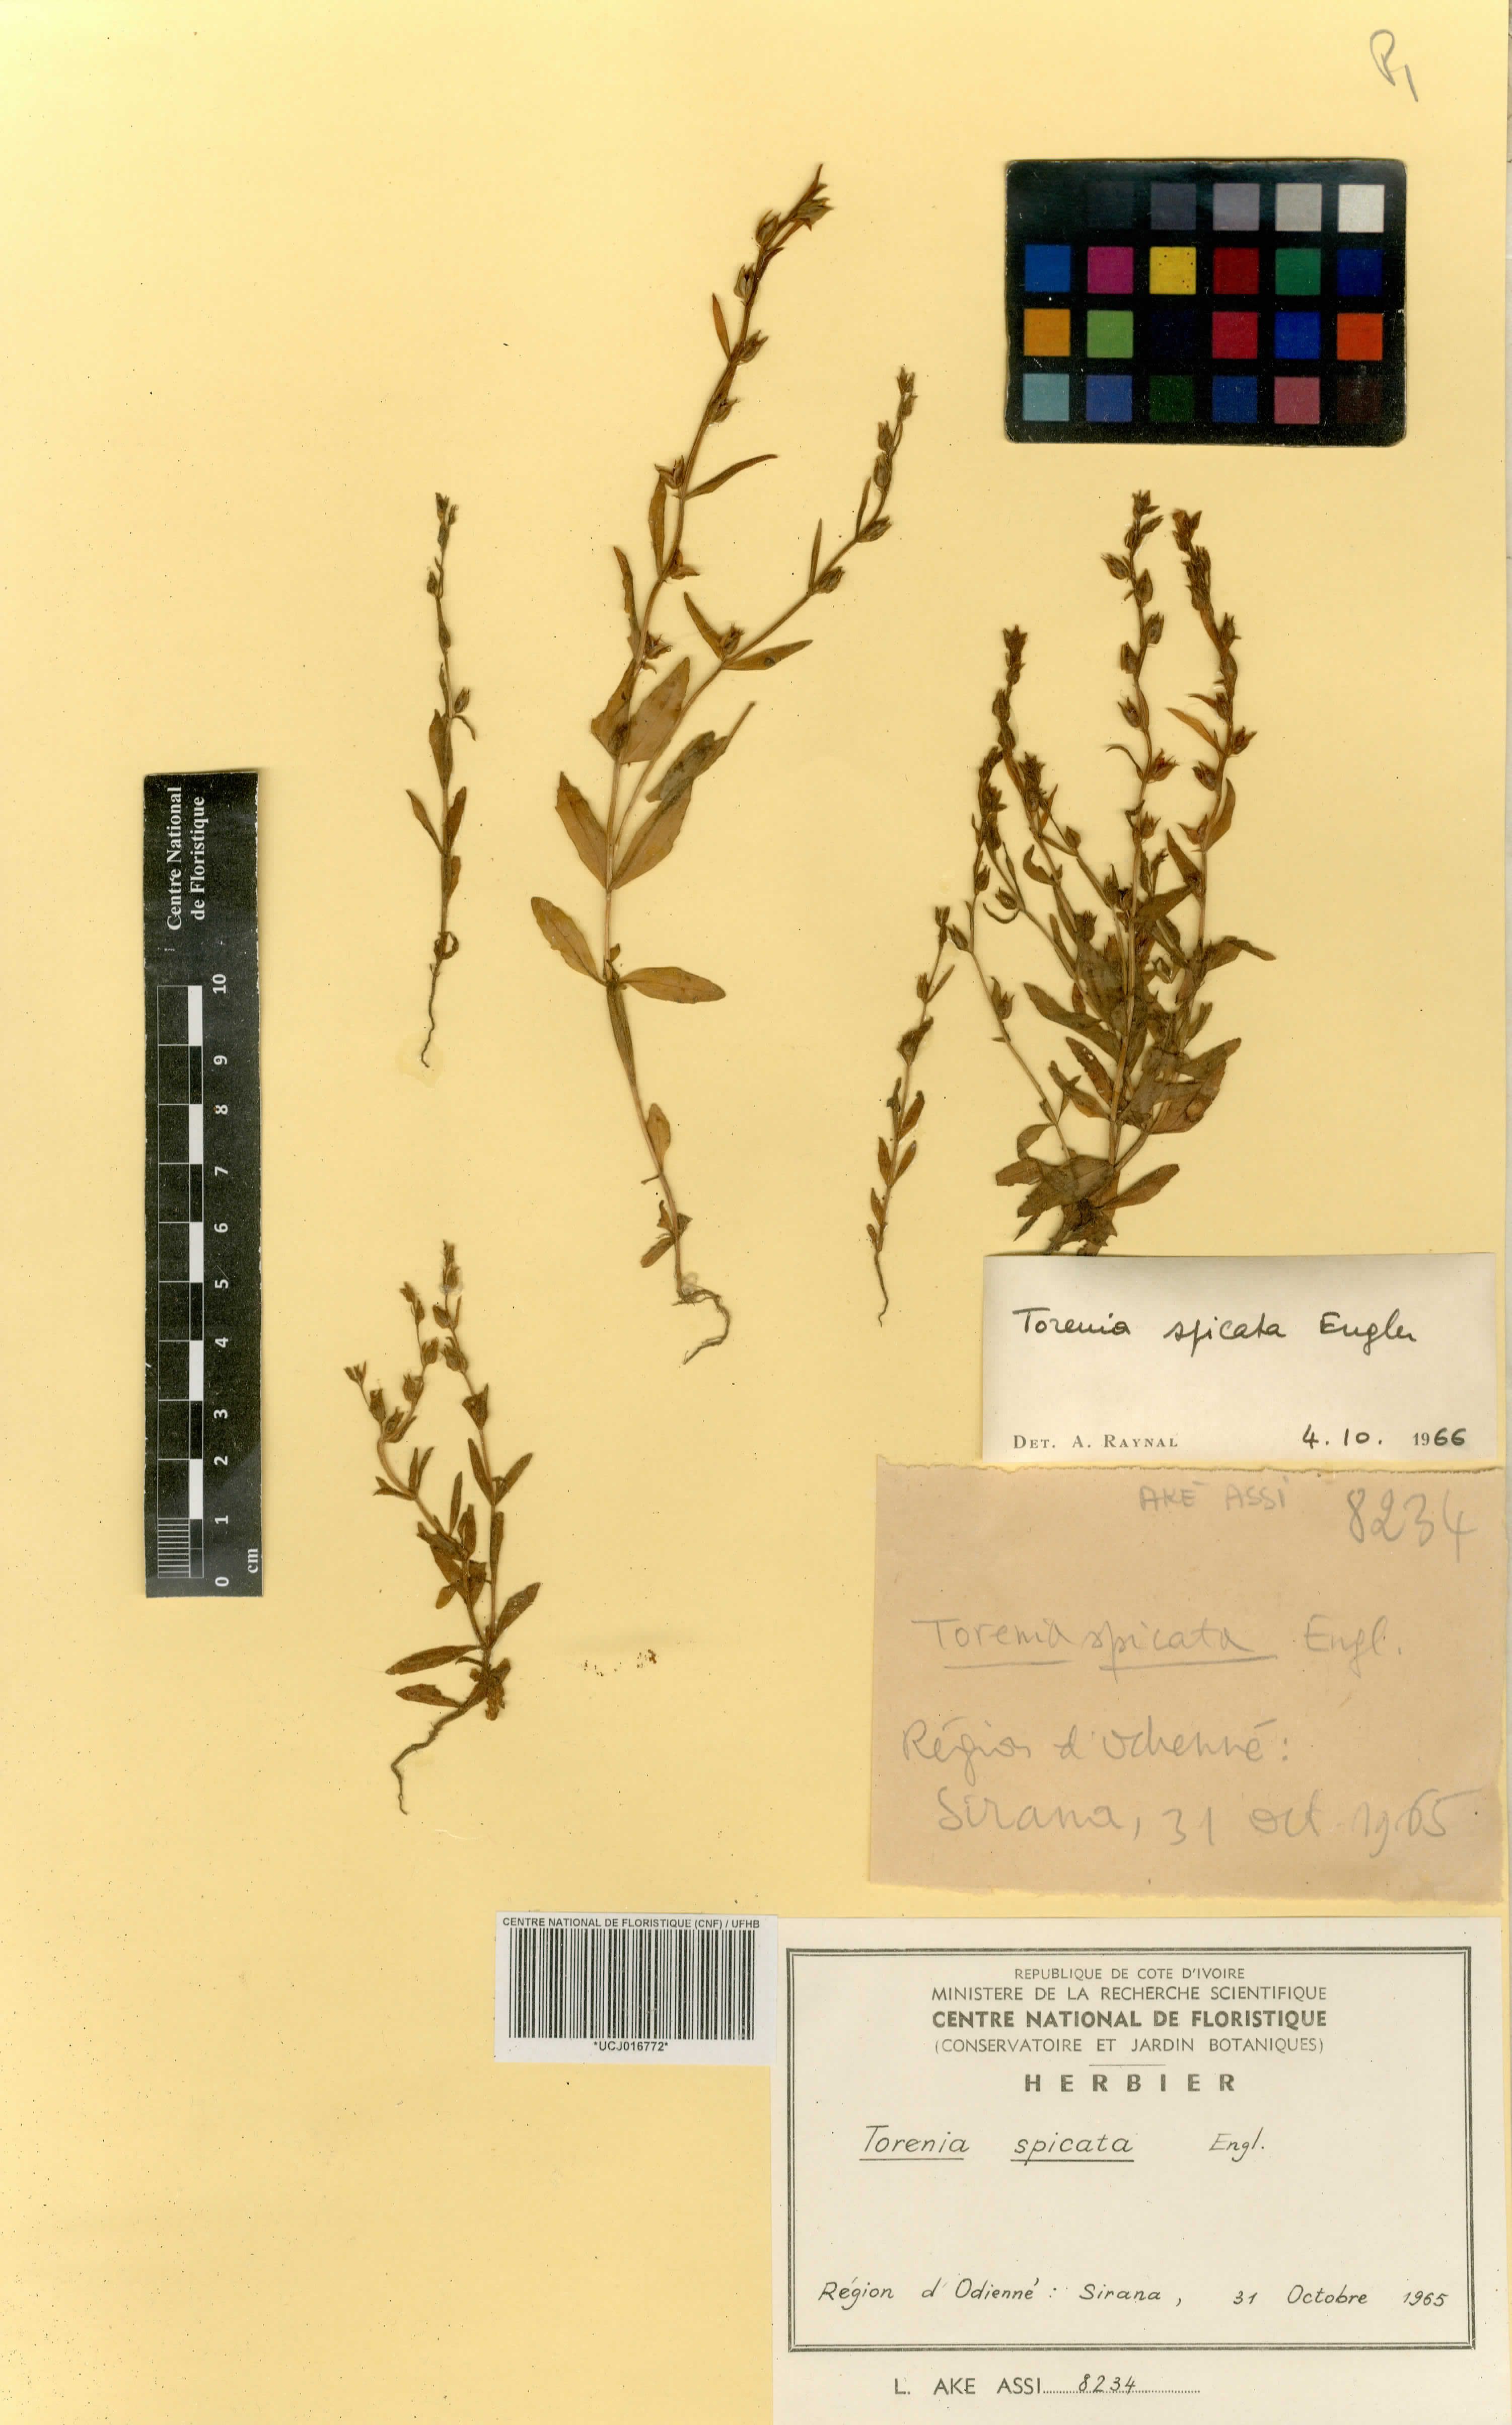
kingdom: Plantae
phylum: Tracheophyta
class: Magnoliopsida
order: Lamiales
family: Linderniaceae
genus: Crepidorhopalon
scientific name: Crepidorhopalon spicatus
